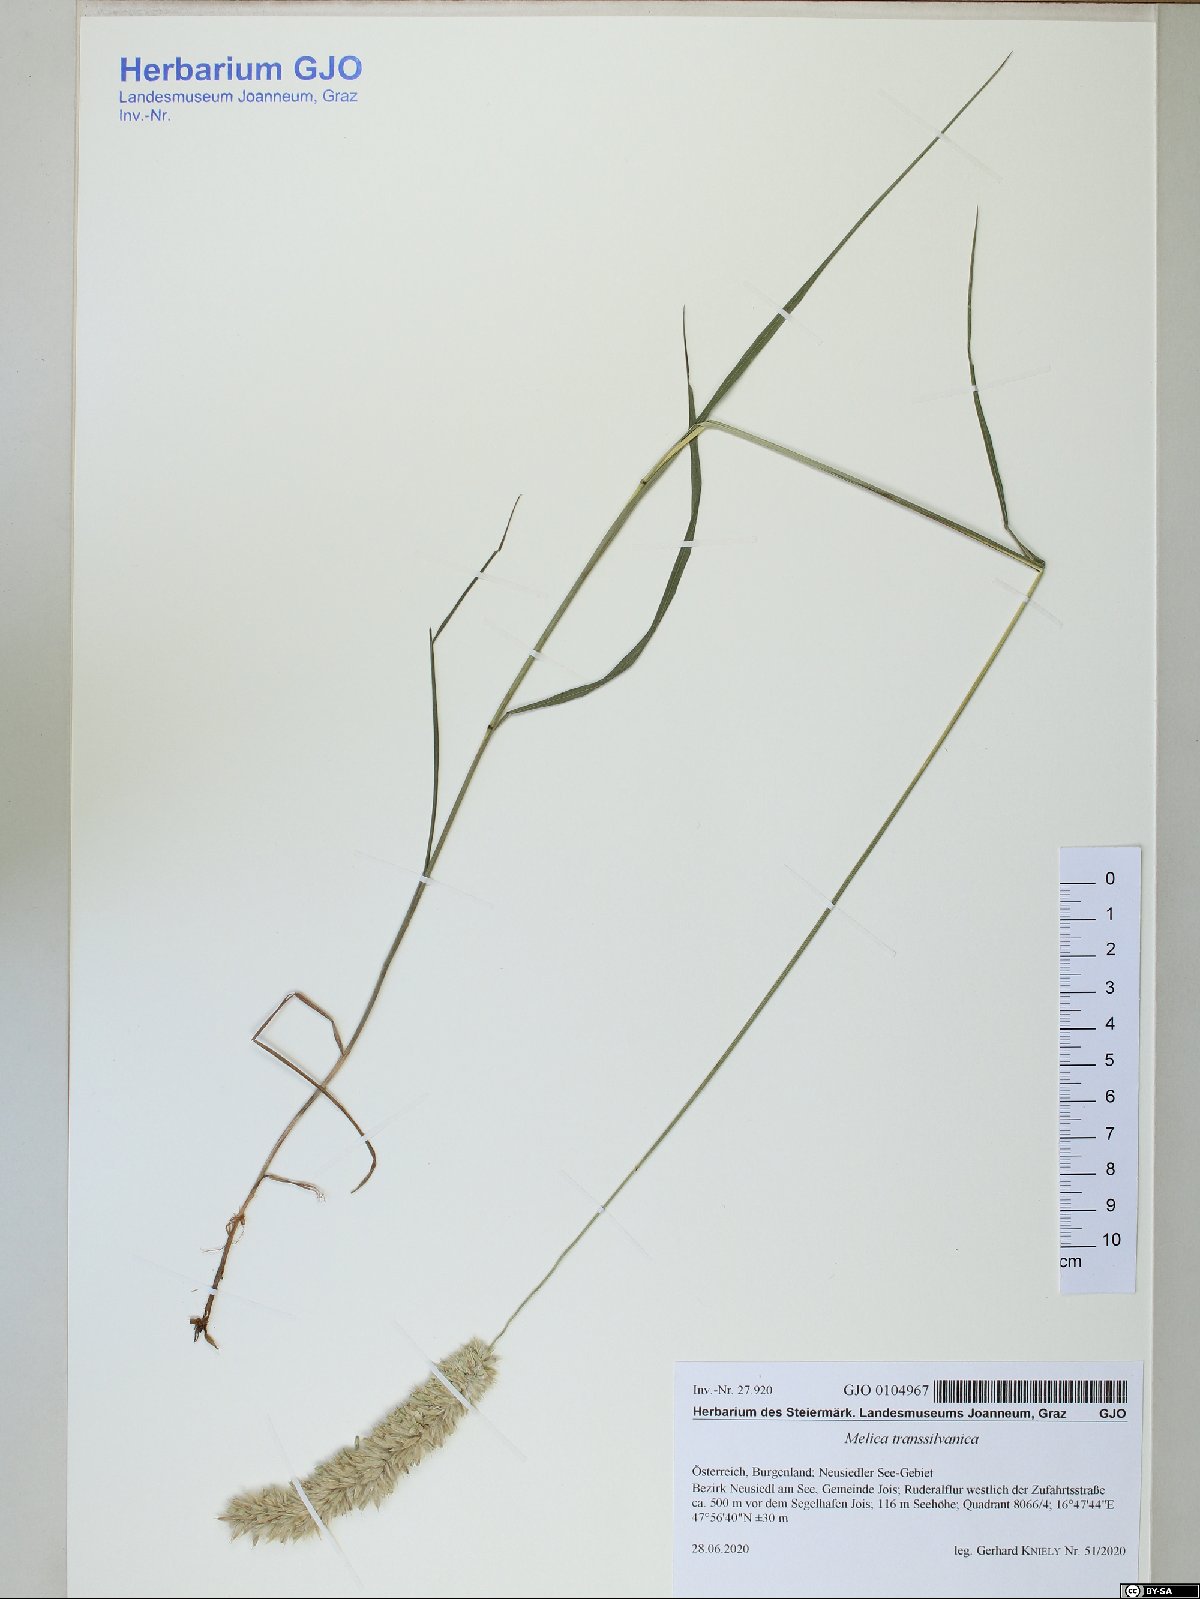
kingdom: Plantae
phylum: Tracheophyta
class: Liliopsida
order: Poales
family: Poaceae
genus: Melica
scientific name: Melica transsilvanica
